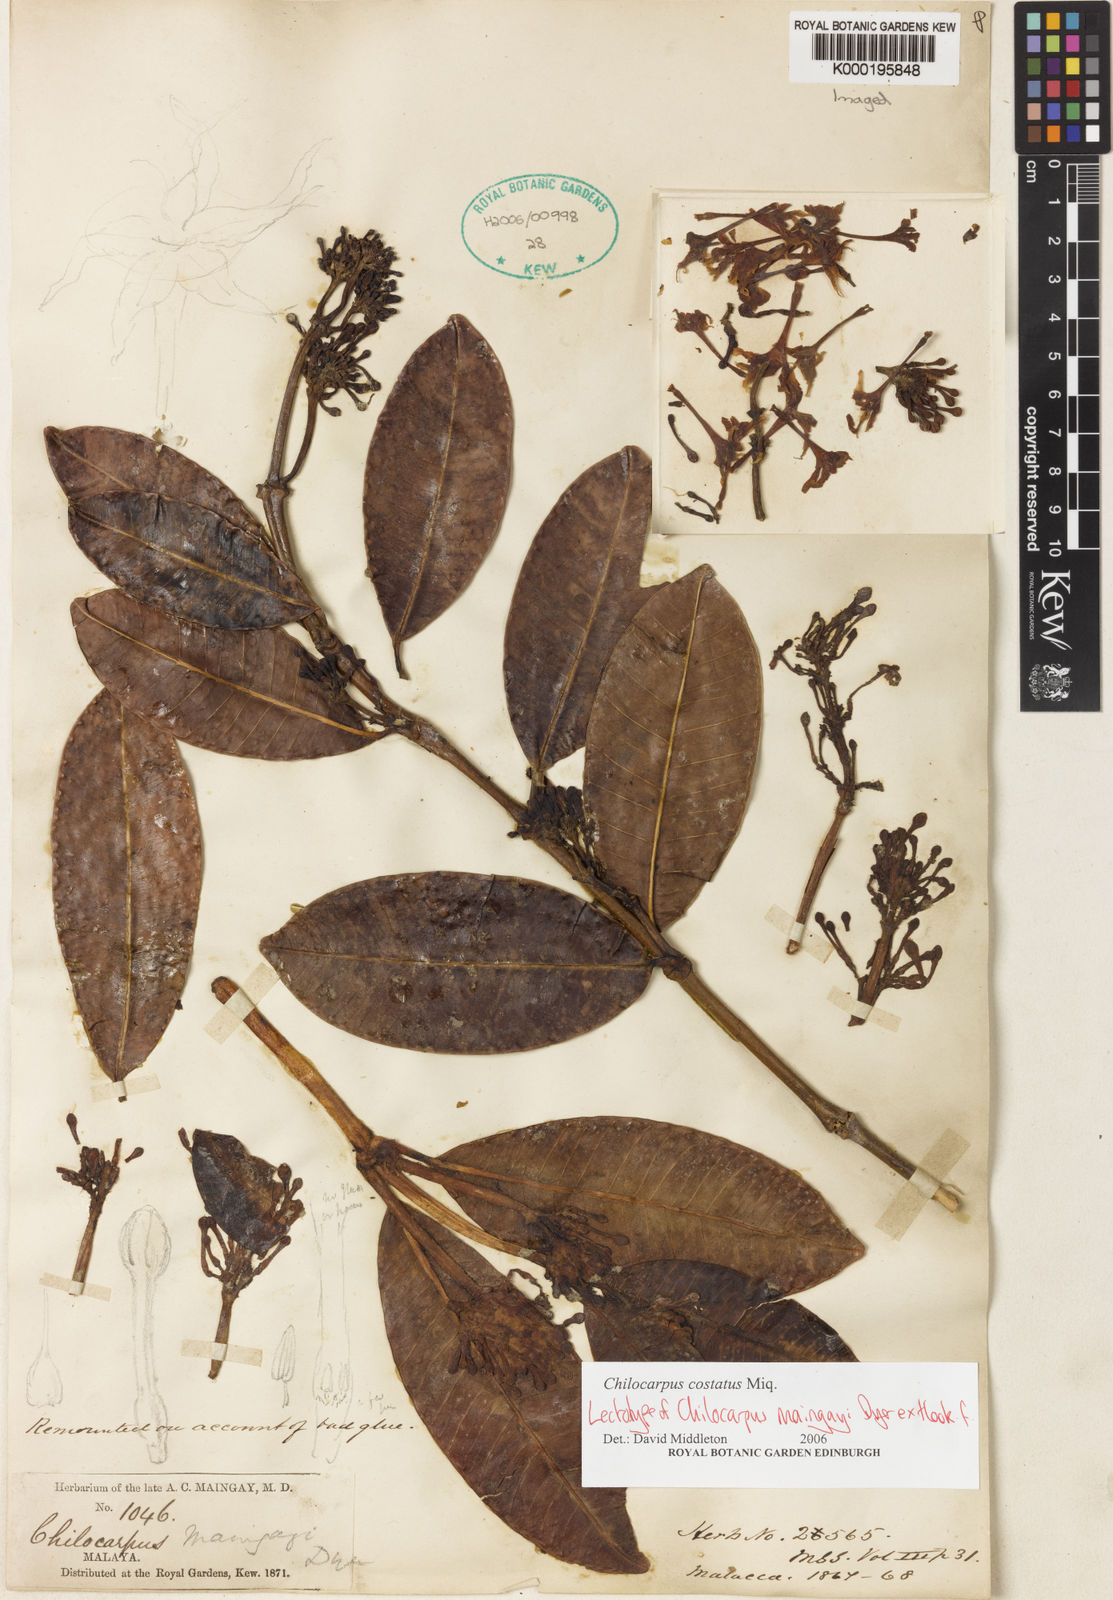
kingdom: Plantae
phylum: Tracheophyta
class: Magnoliopsida
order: Gentianales
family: Apocynaceae
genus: Chilocarpus
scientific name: Chilocarpus costatus
